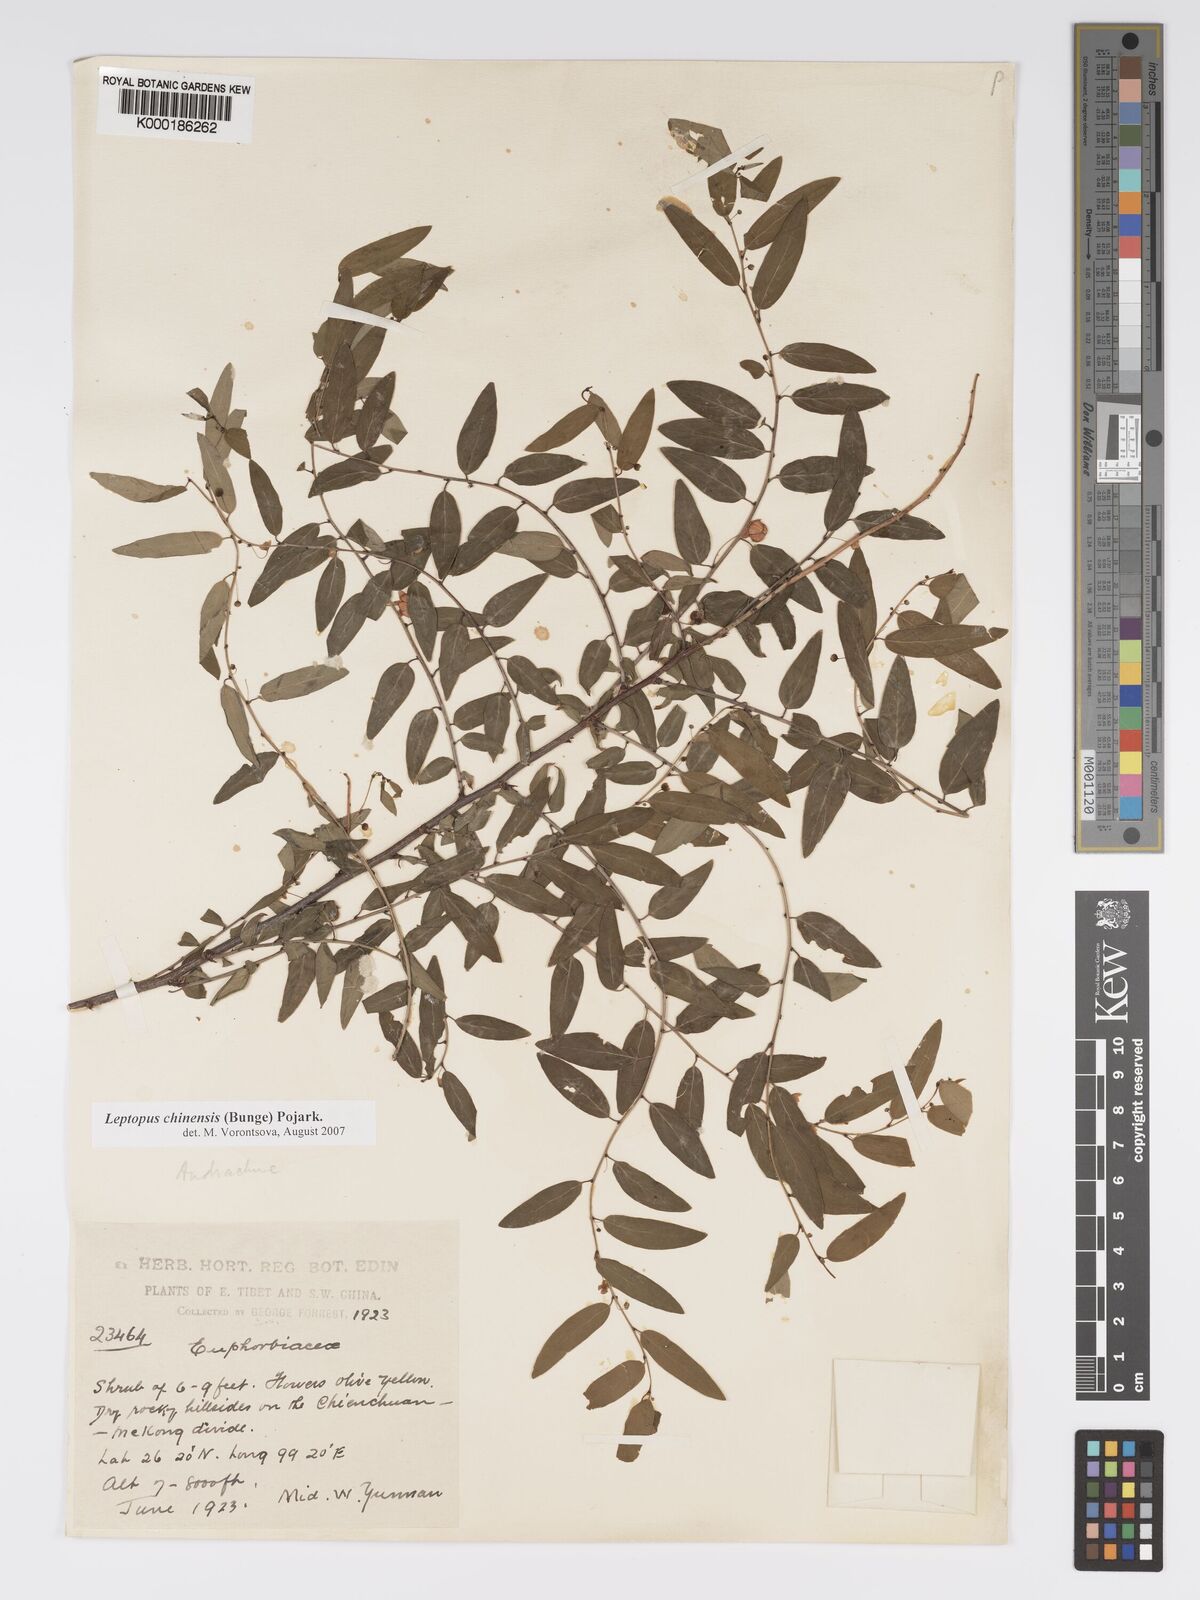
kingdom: Plantae
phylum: Tracheophyta
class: Magnoliopsida
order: Malpighiales
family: Phyllanthaceae
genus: Andrachne
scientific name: Andrachne
